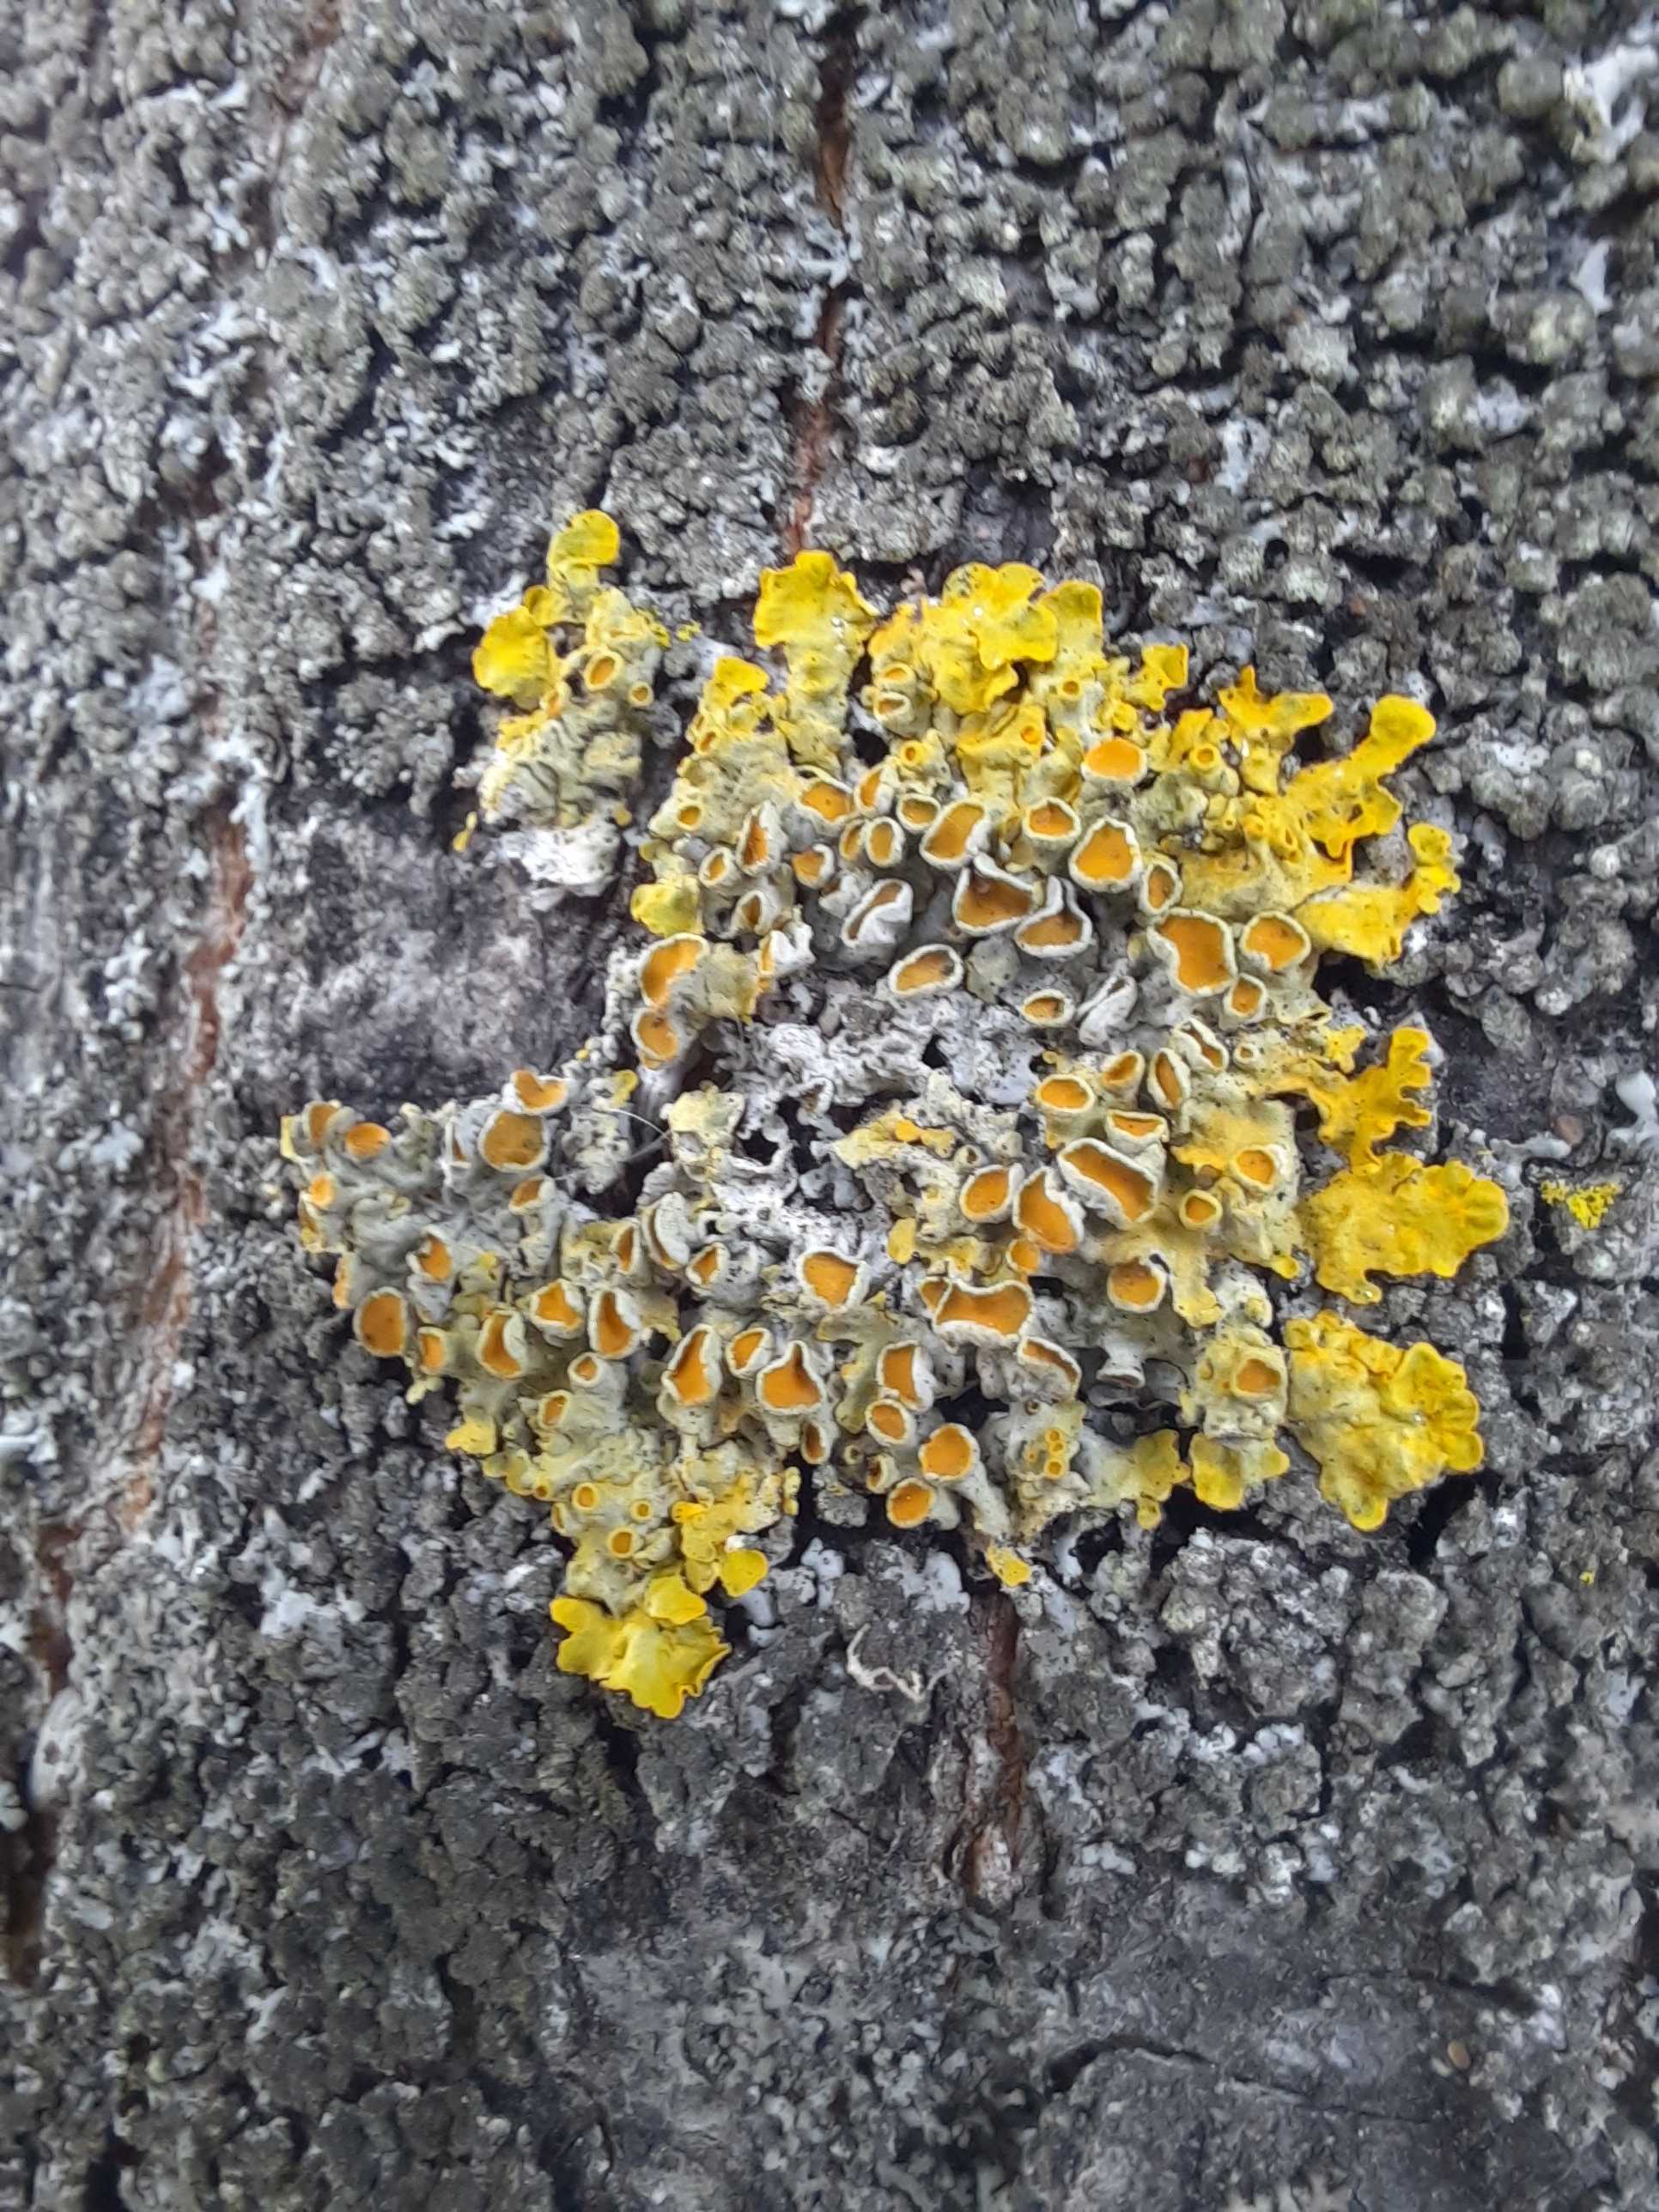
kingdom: Fungi
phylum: Ascomycota
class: Lecanoromycetes
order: Teloschistales
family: Teloschistaceae
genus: Xanthoria
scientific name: Xanthoria parietina
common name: almindelig væggelav
